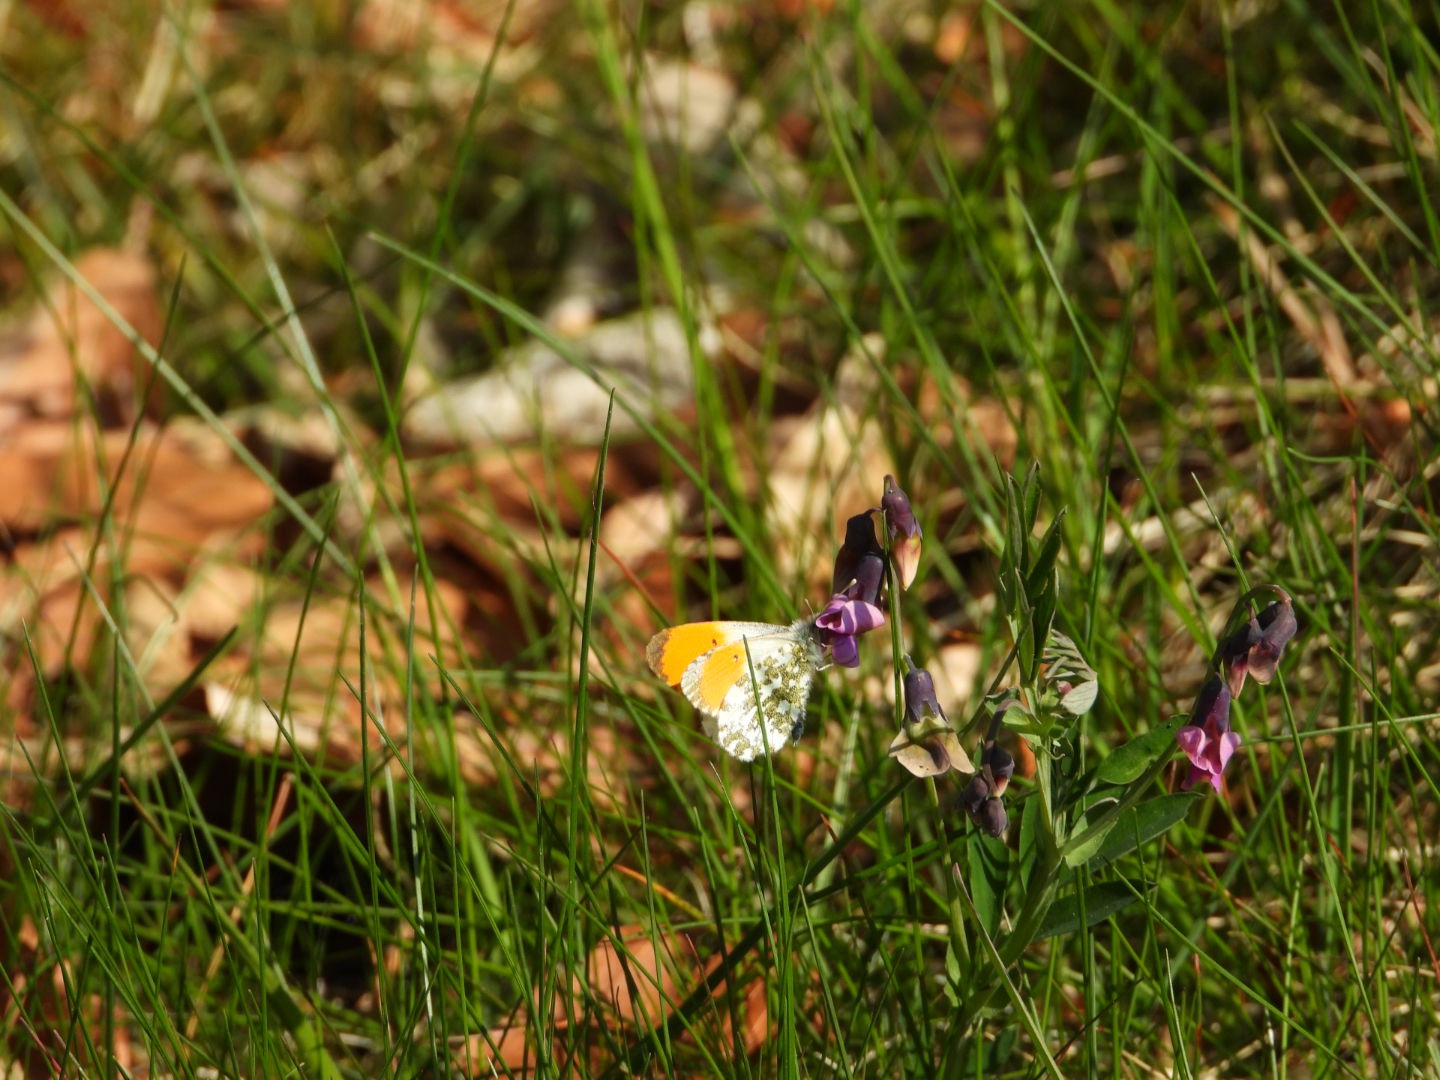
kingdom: Animalia
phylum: Arthropoda
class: Insecta
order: Lepidoptera
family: Pieridae
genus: Anthocharis
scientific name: Anthocharis cardamines
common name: Aurora
